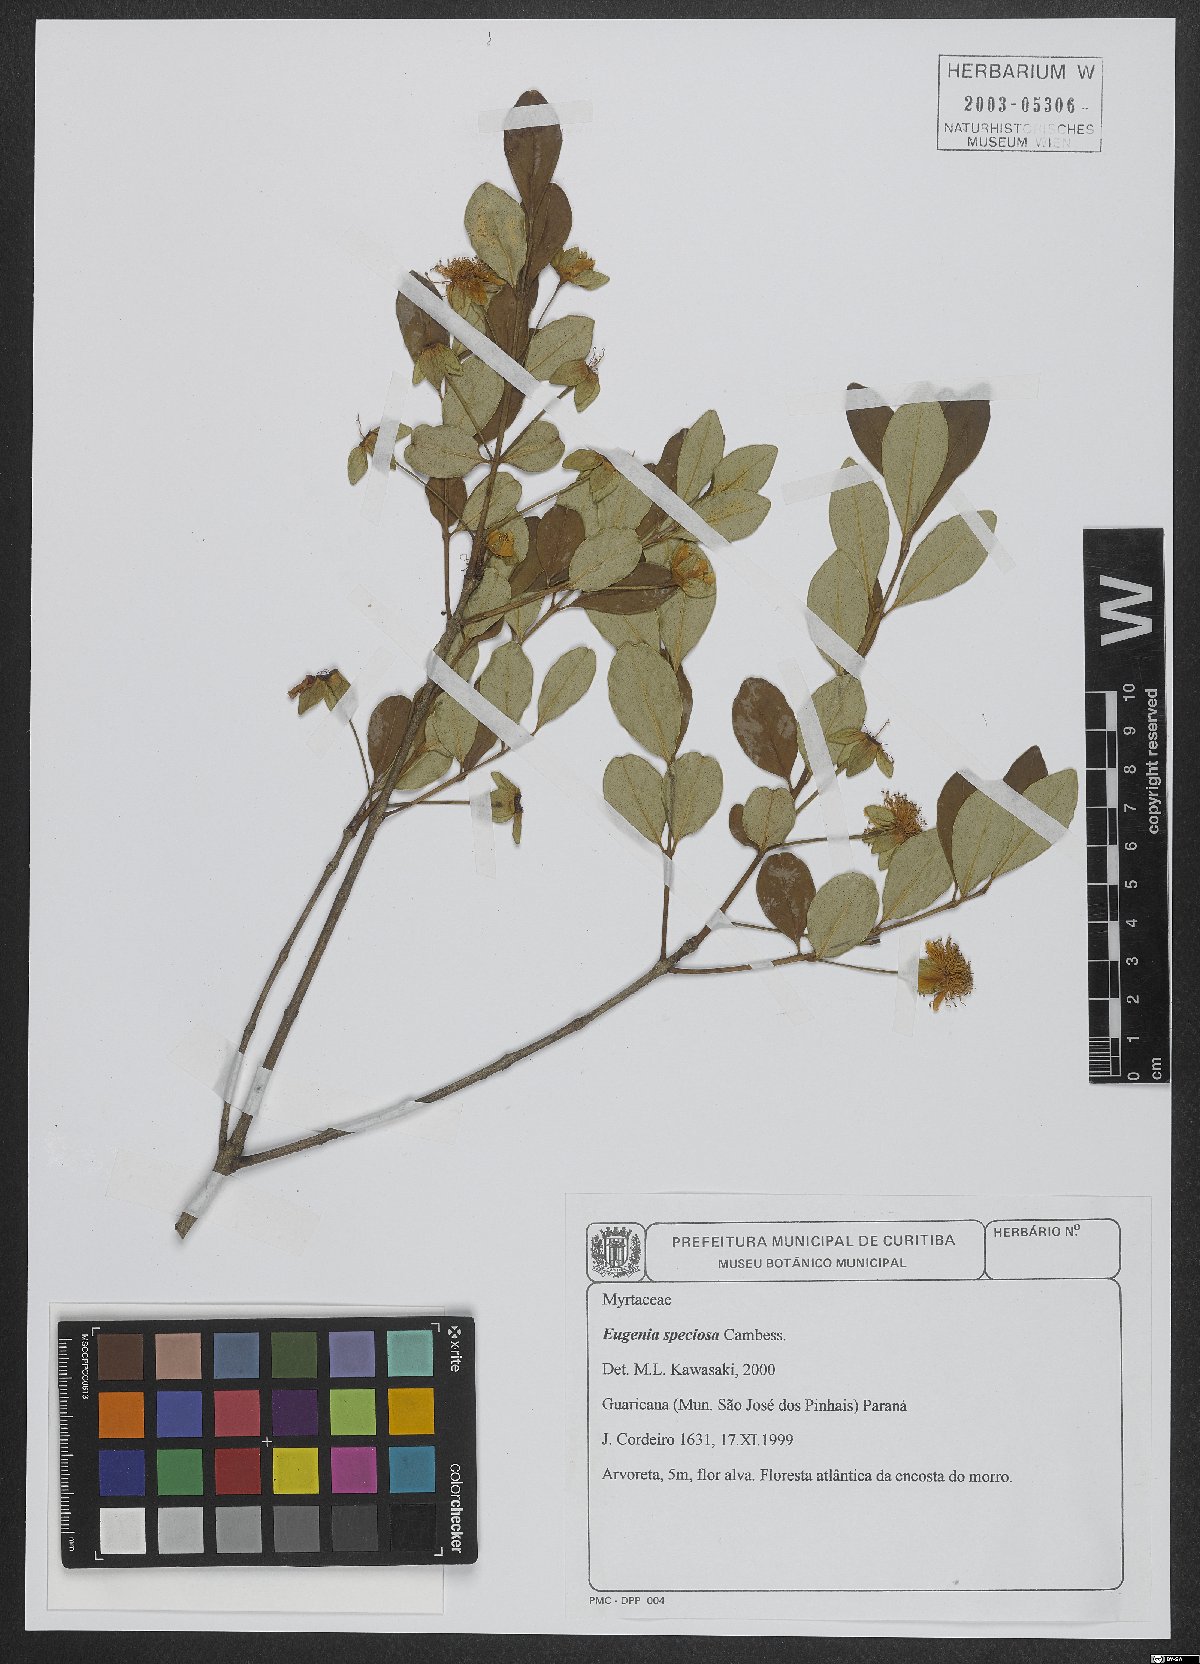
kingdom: Plantae
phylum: Tracheophyta
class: Magnoliopsida
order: Myrtales
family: Myrtaceae
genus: Eugenia
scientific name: Eugenia speciosa
